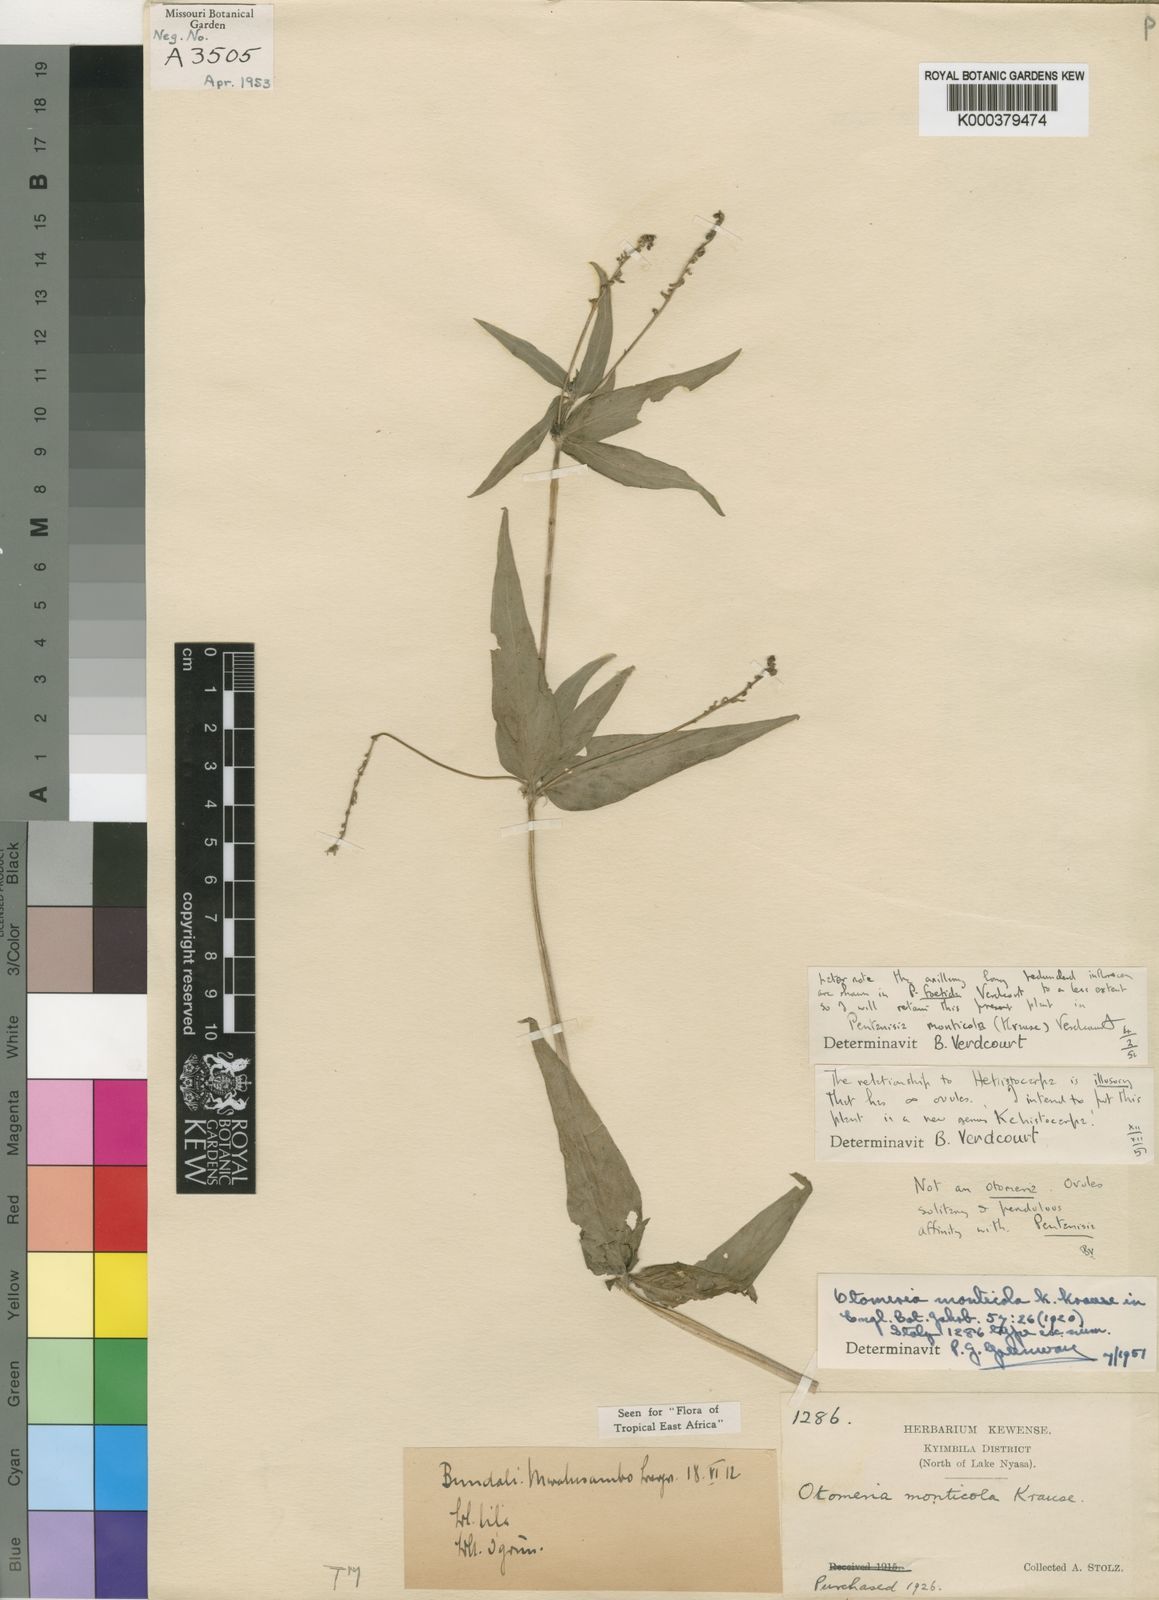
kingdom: Plantae
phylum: Tracheophyta
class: Magnoliopsida
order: Gentianales
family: Rubiaceae
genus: Pentanisia
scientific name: Pentanisia monticola
